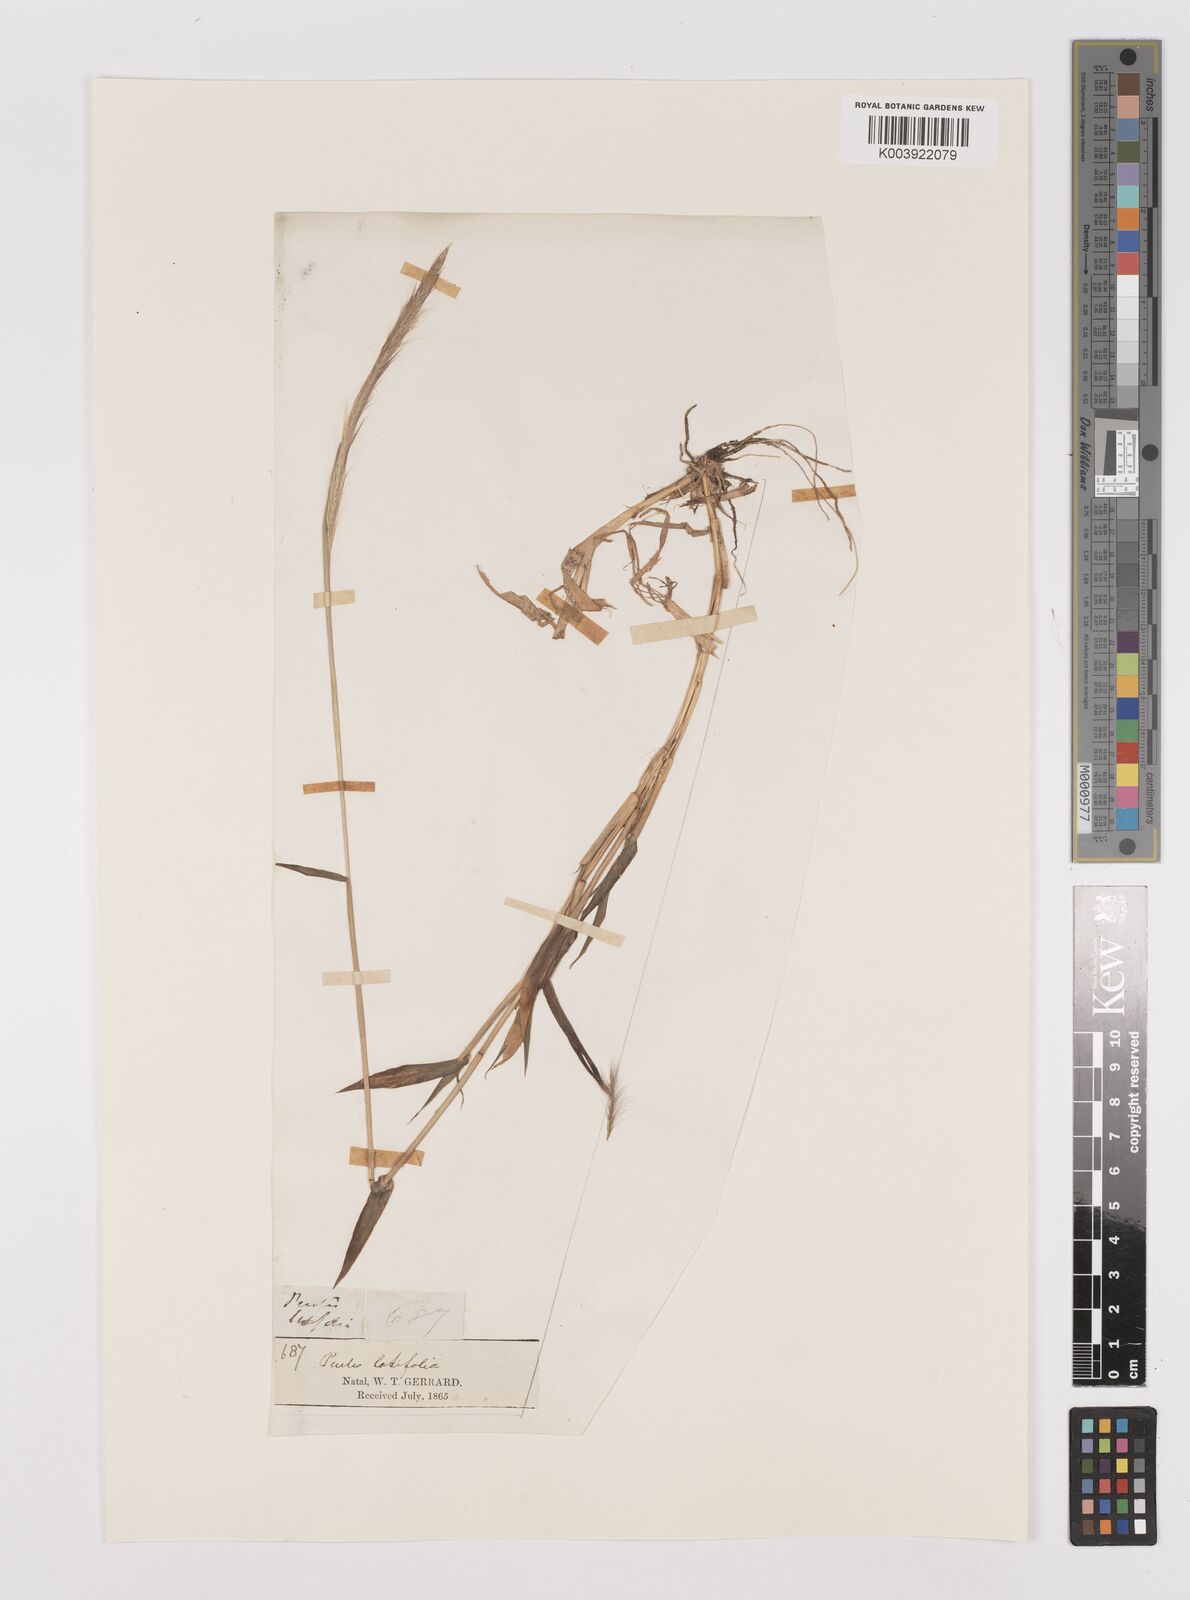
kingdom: Plantae
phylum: Tracheophyta
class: Liliopsida
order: Poales
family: Poaceae
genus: Perotis
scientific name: Perotis patens
